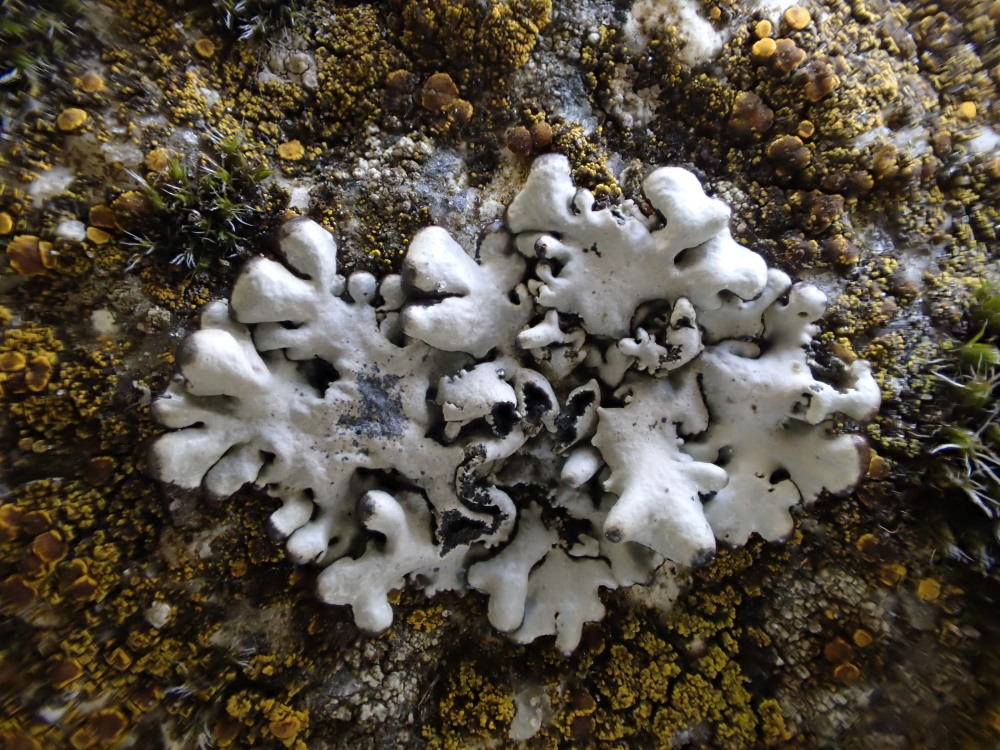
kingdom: Fungi
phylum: Ascomycota
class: Lecanoromycetes
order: Lecanorales
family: Parmeliaceae
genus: Hypogymnia
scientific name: Hypogymnia physodes
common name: almindelig kvistlav
